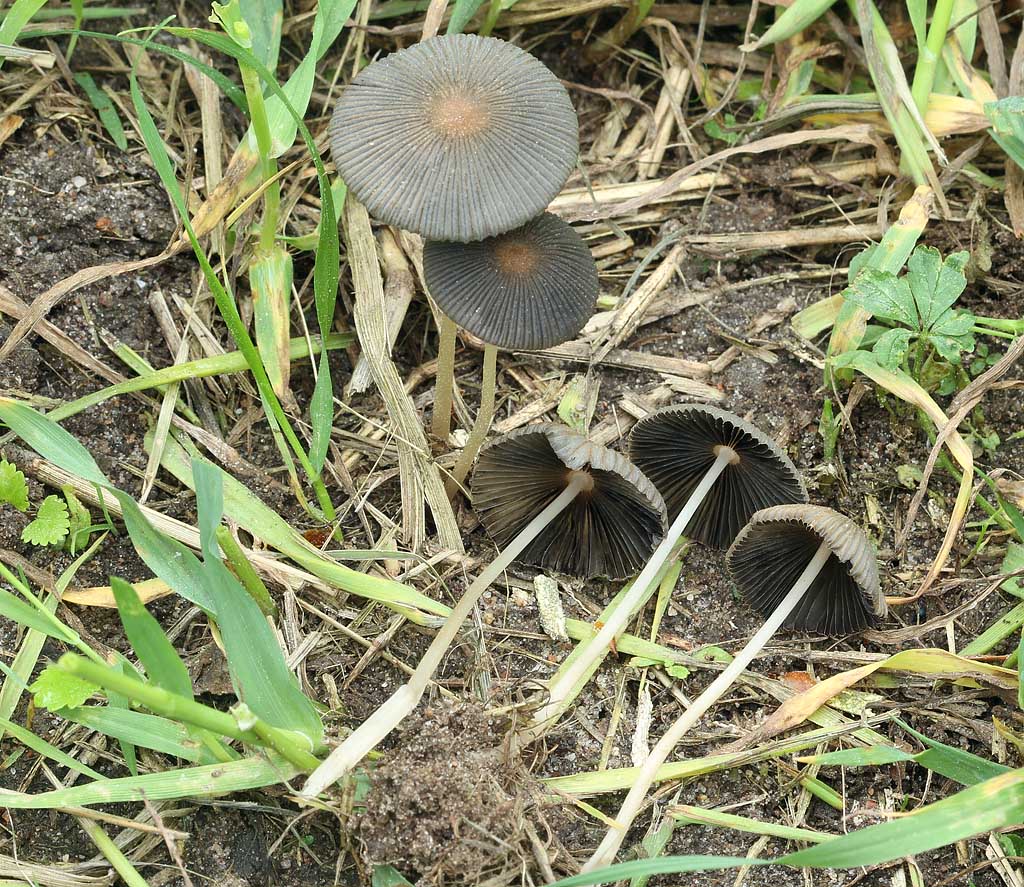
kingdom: Fungi
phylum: Basidiomycota
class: Agaricomycetes
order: Agaricales
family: Psathyrellaceae
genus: Parasola
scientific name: Parasola lactea
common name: glat hjulhat
